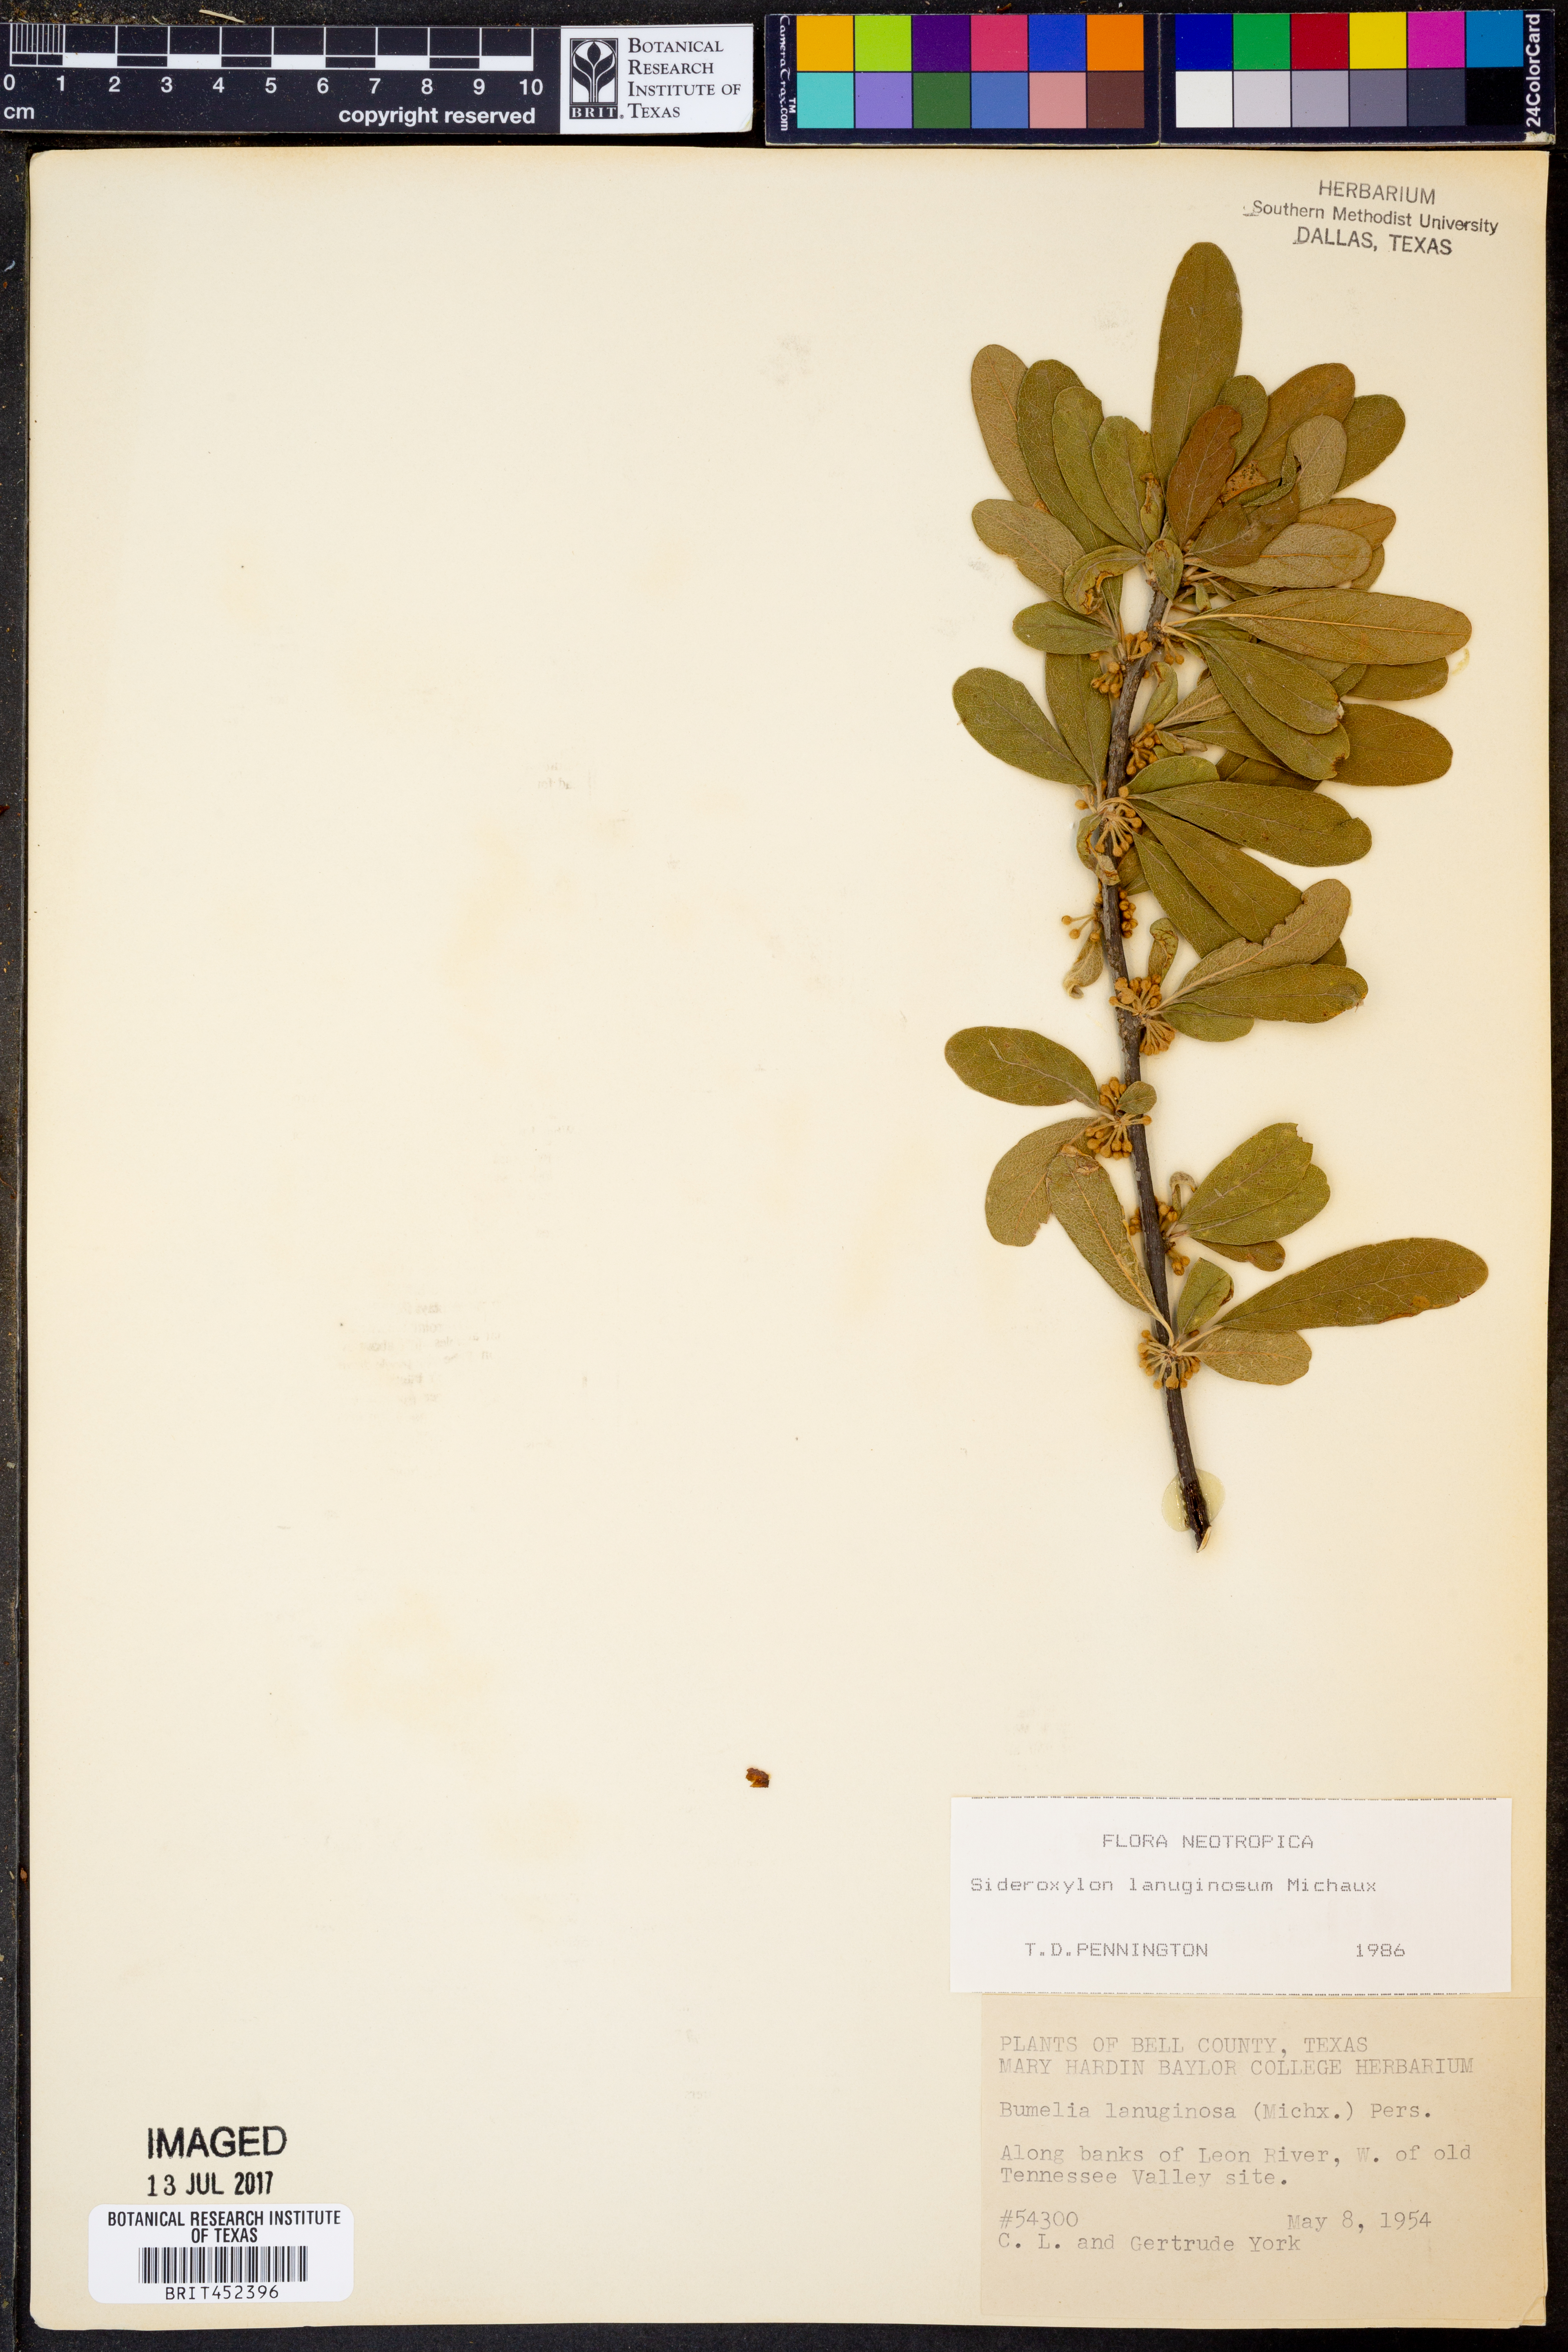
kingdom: Plantae
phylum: Tracheophyta
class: Magnoliopsida
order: Ericales
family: Sapotaceae
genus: Sideroxylon
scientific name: Sideroxylon lanuginosum
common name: Chittamwood
